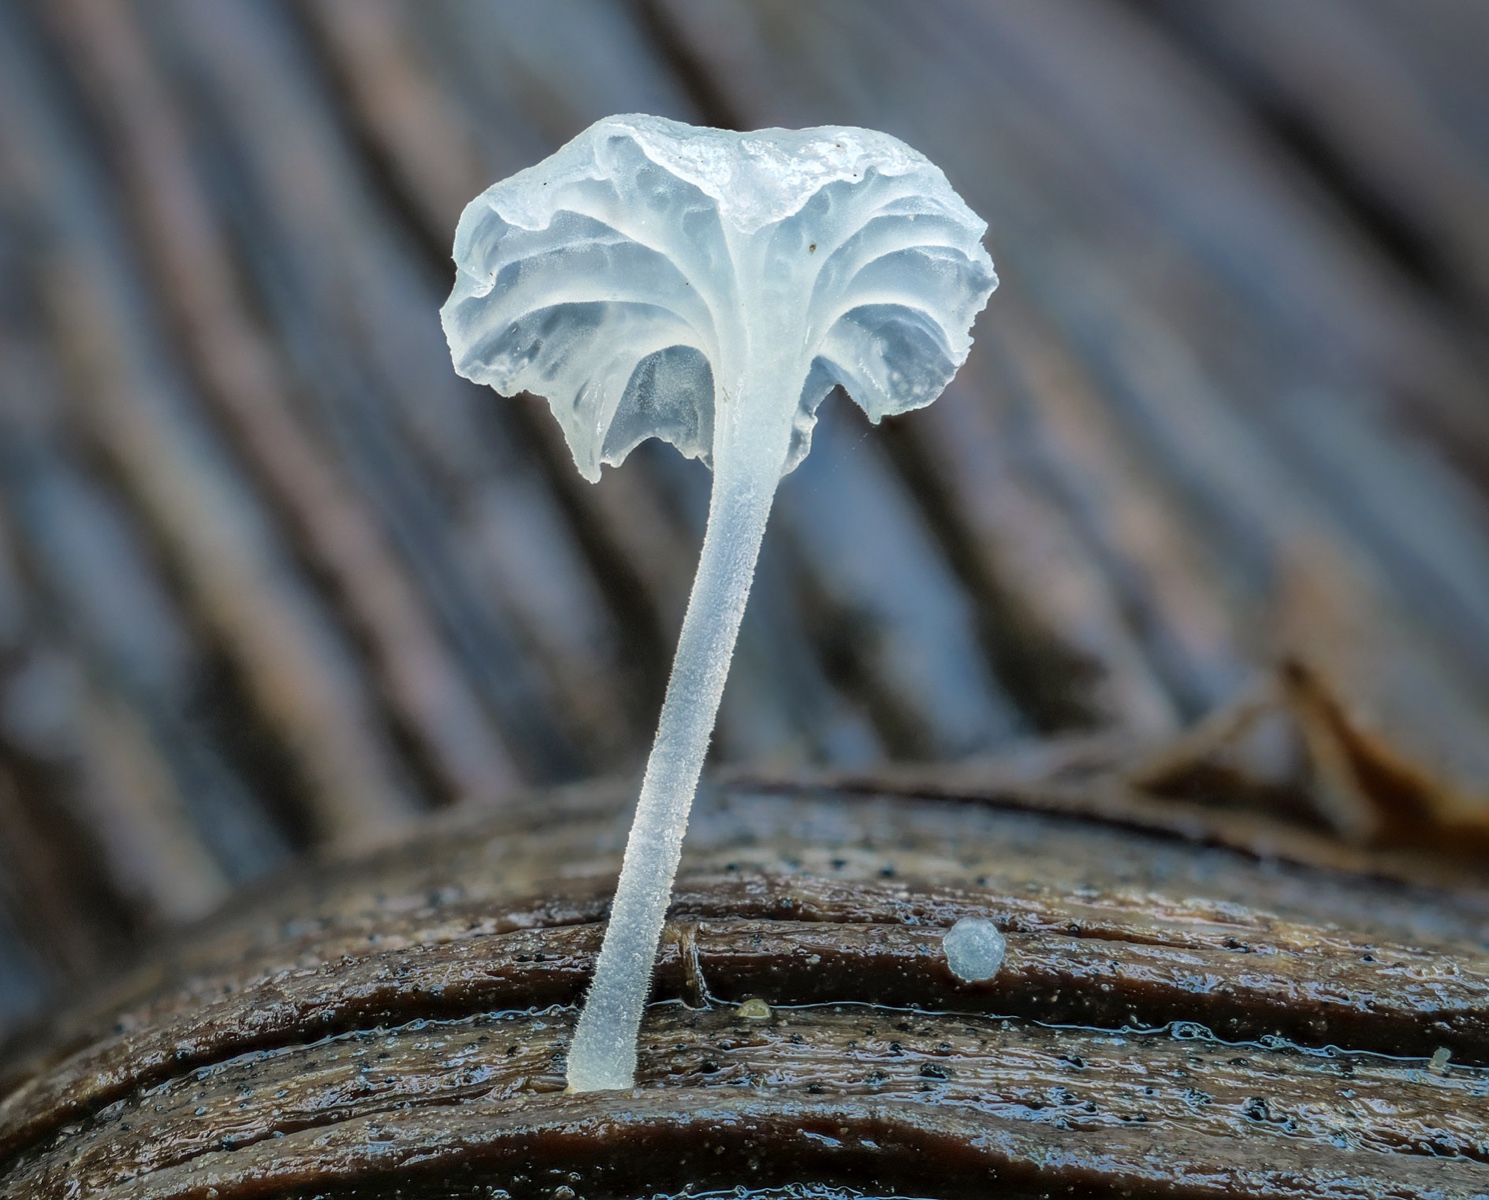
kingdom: Fungi
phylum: Basidiomycota
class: Agaricomycetes
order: Agaricales
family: Mycenaceae
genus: Hemimycena
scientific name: Hemimycena
